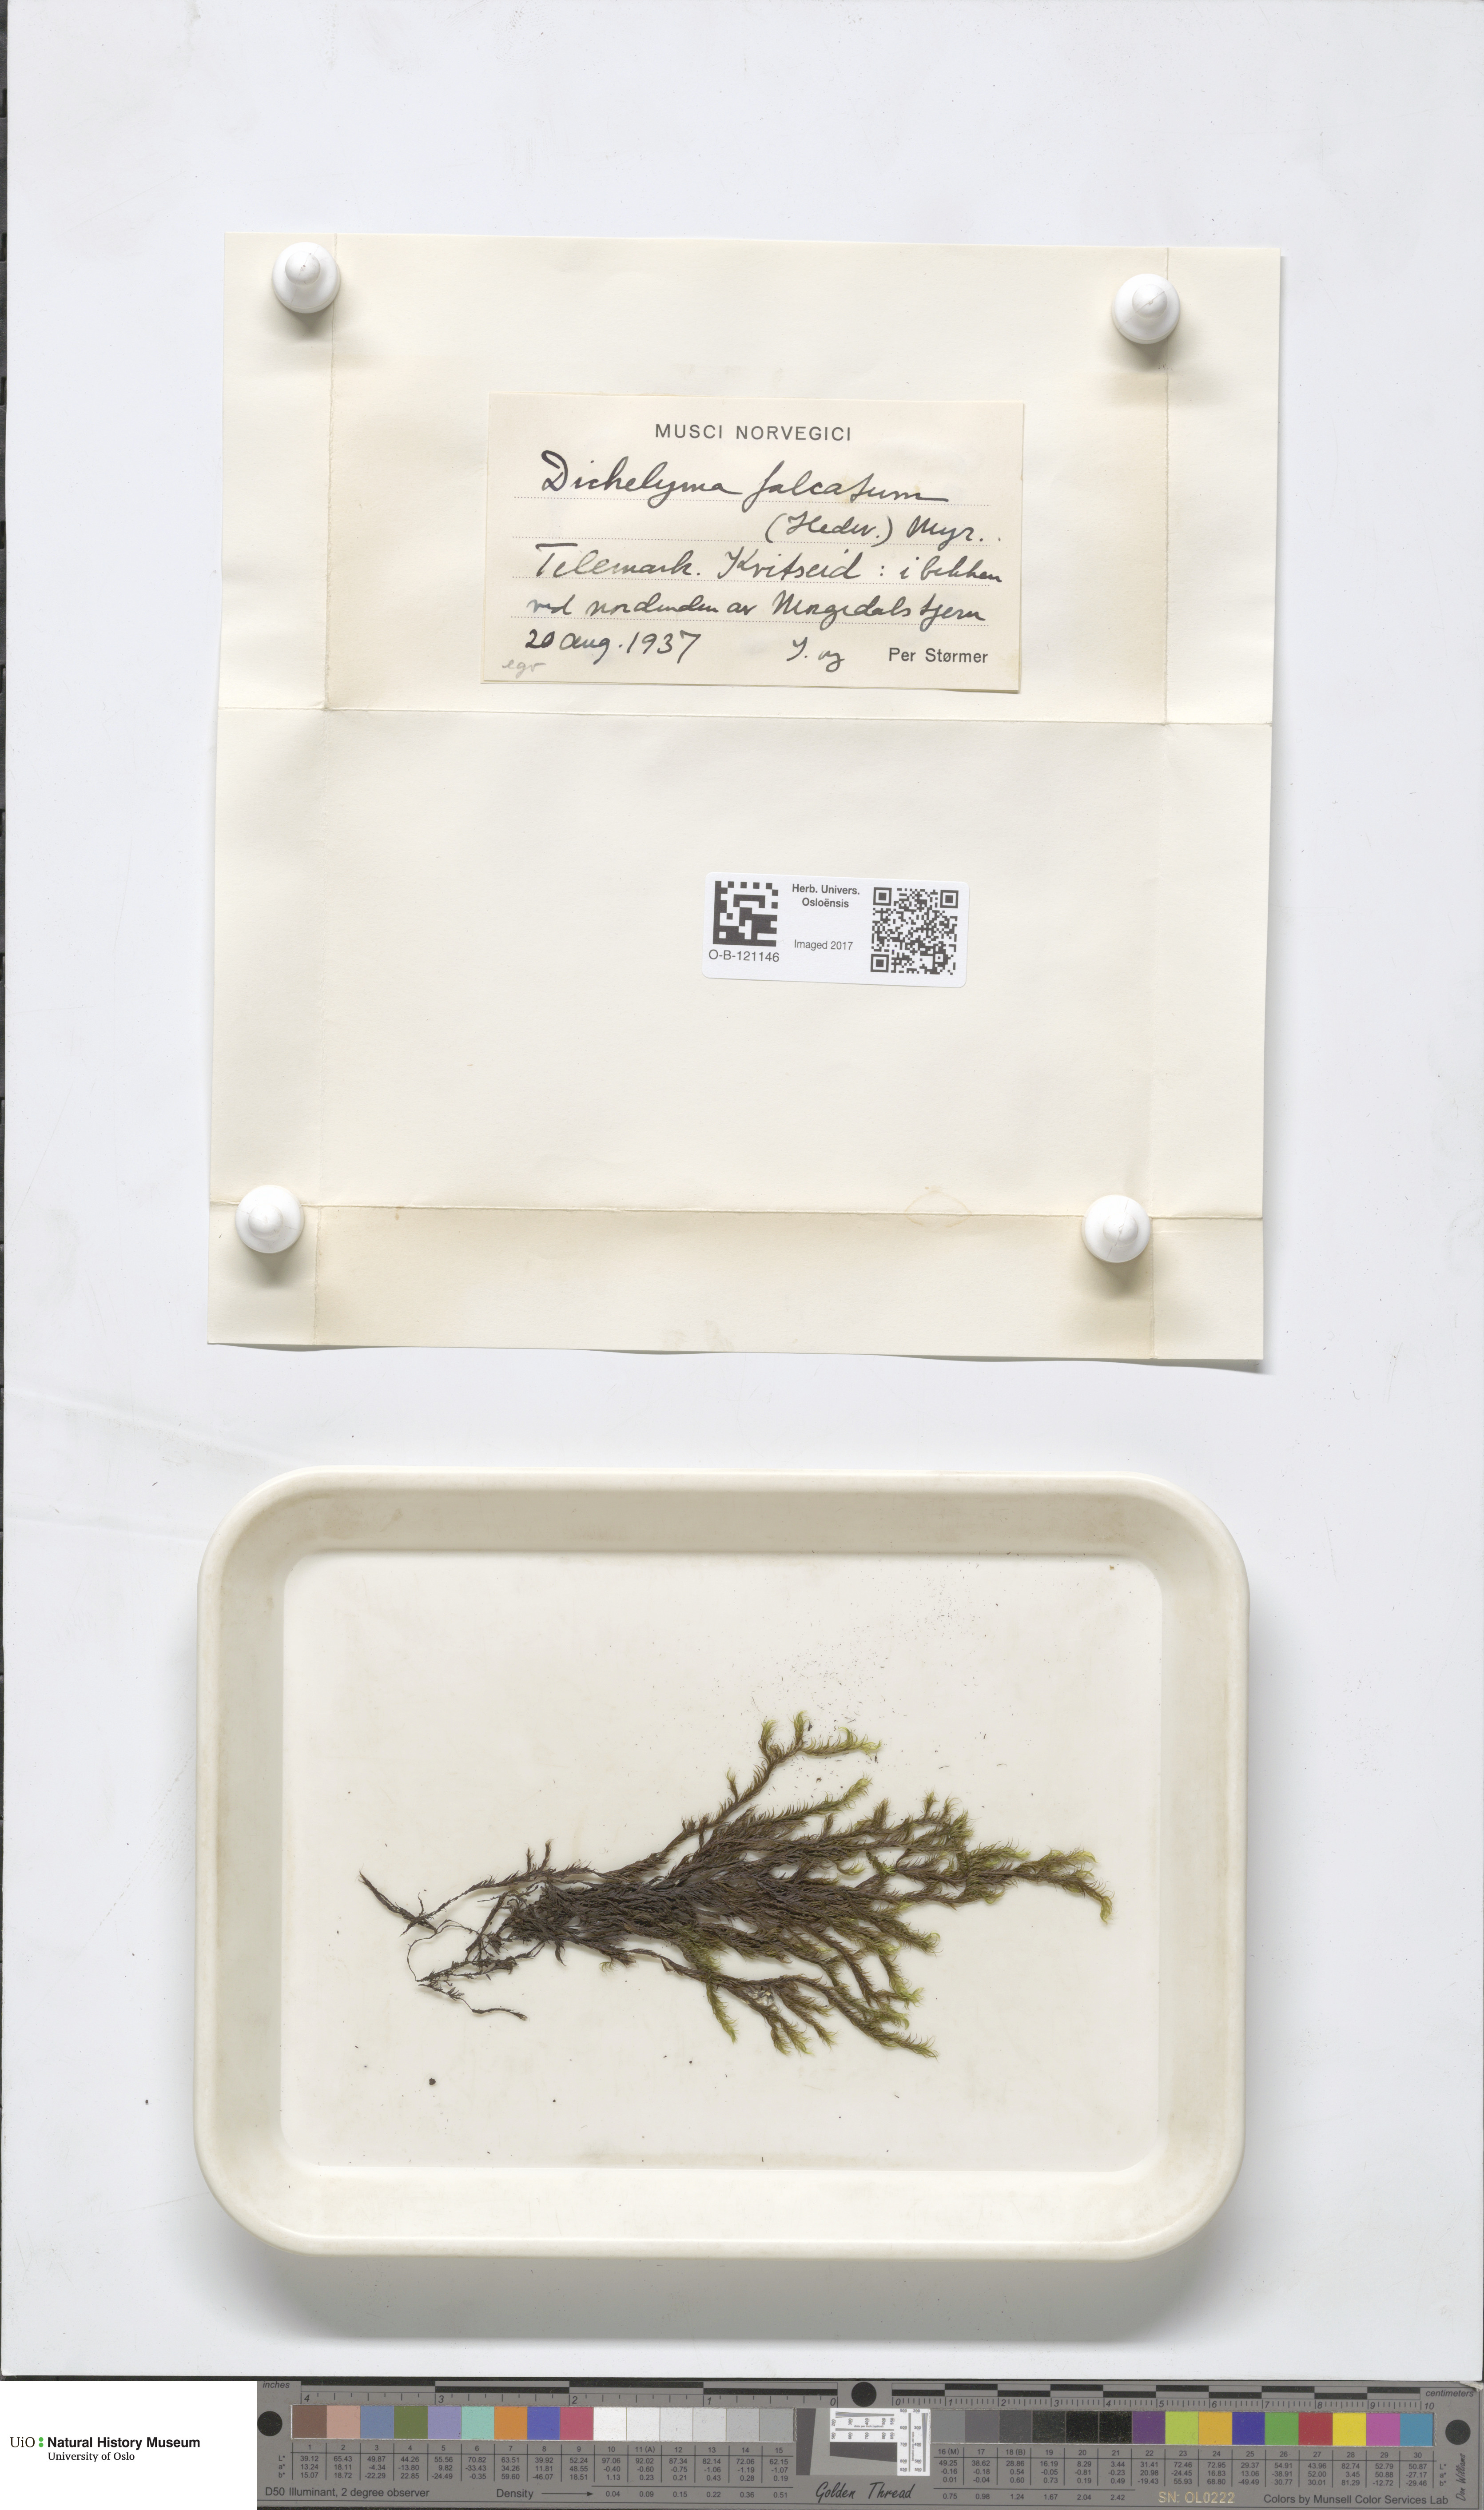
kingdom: Plantae
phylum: Bryophyta
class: Bryopsida
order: Hypnales
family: Fontinalaceae
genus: Dichelyma
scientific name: Dichelyma falcatum
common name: Lance-leaved claw moss
